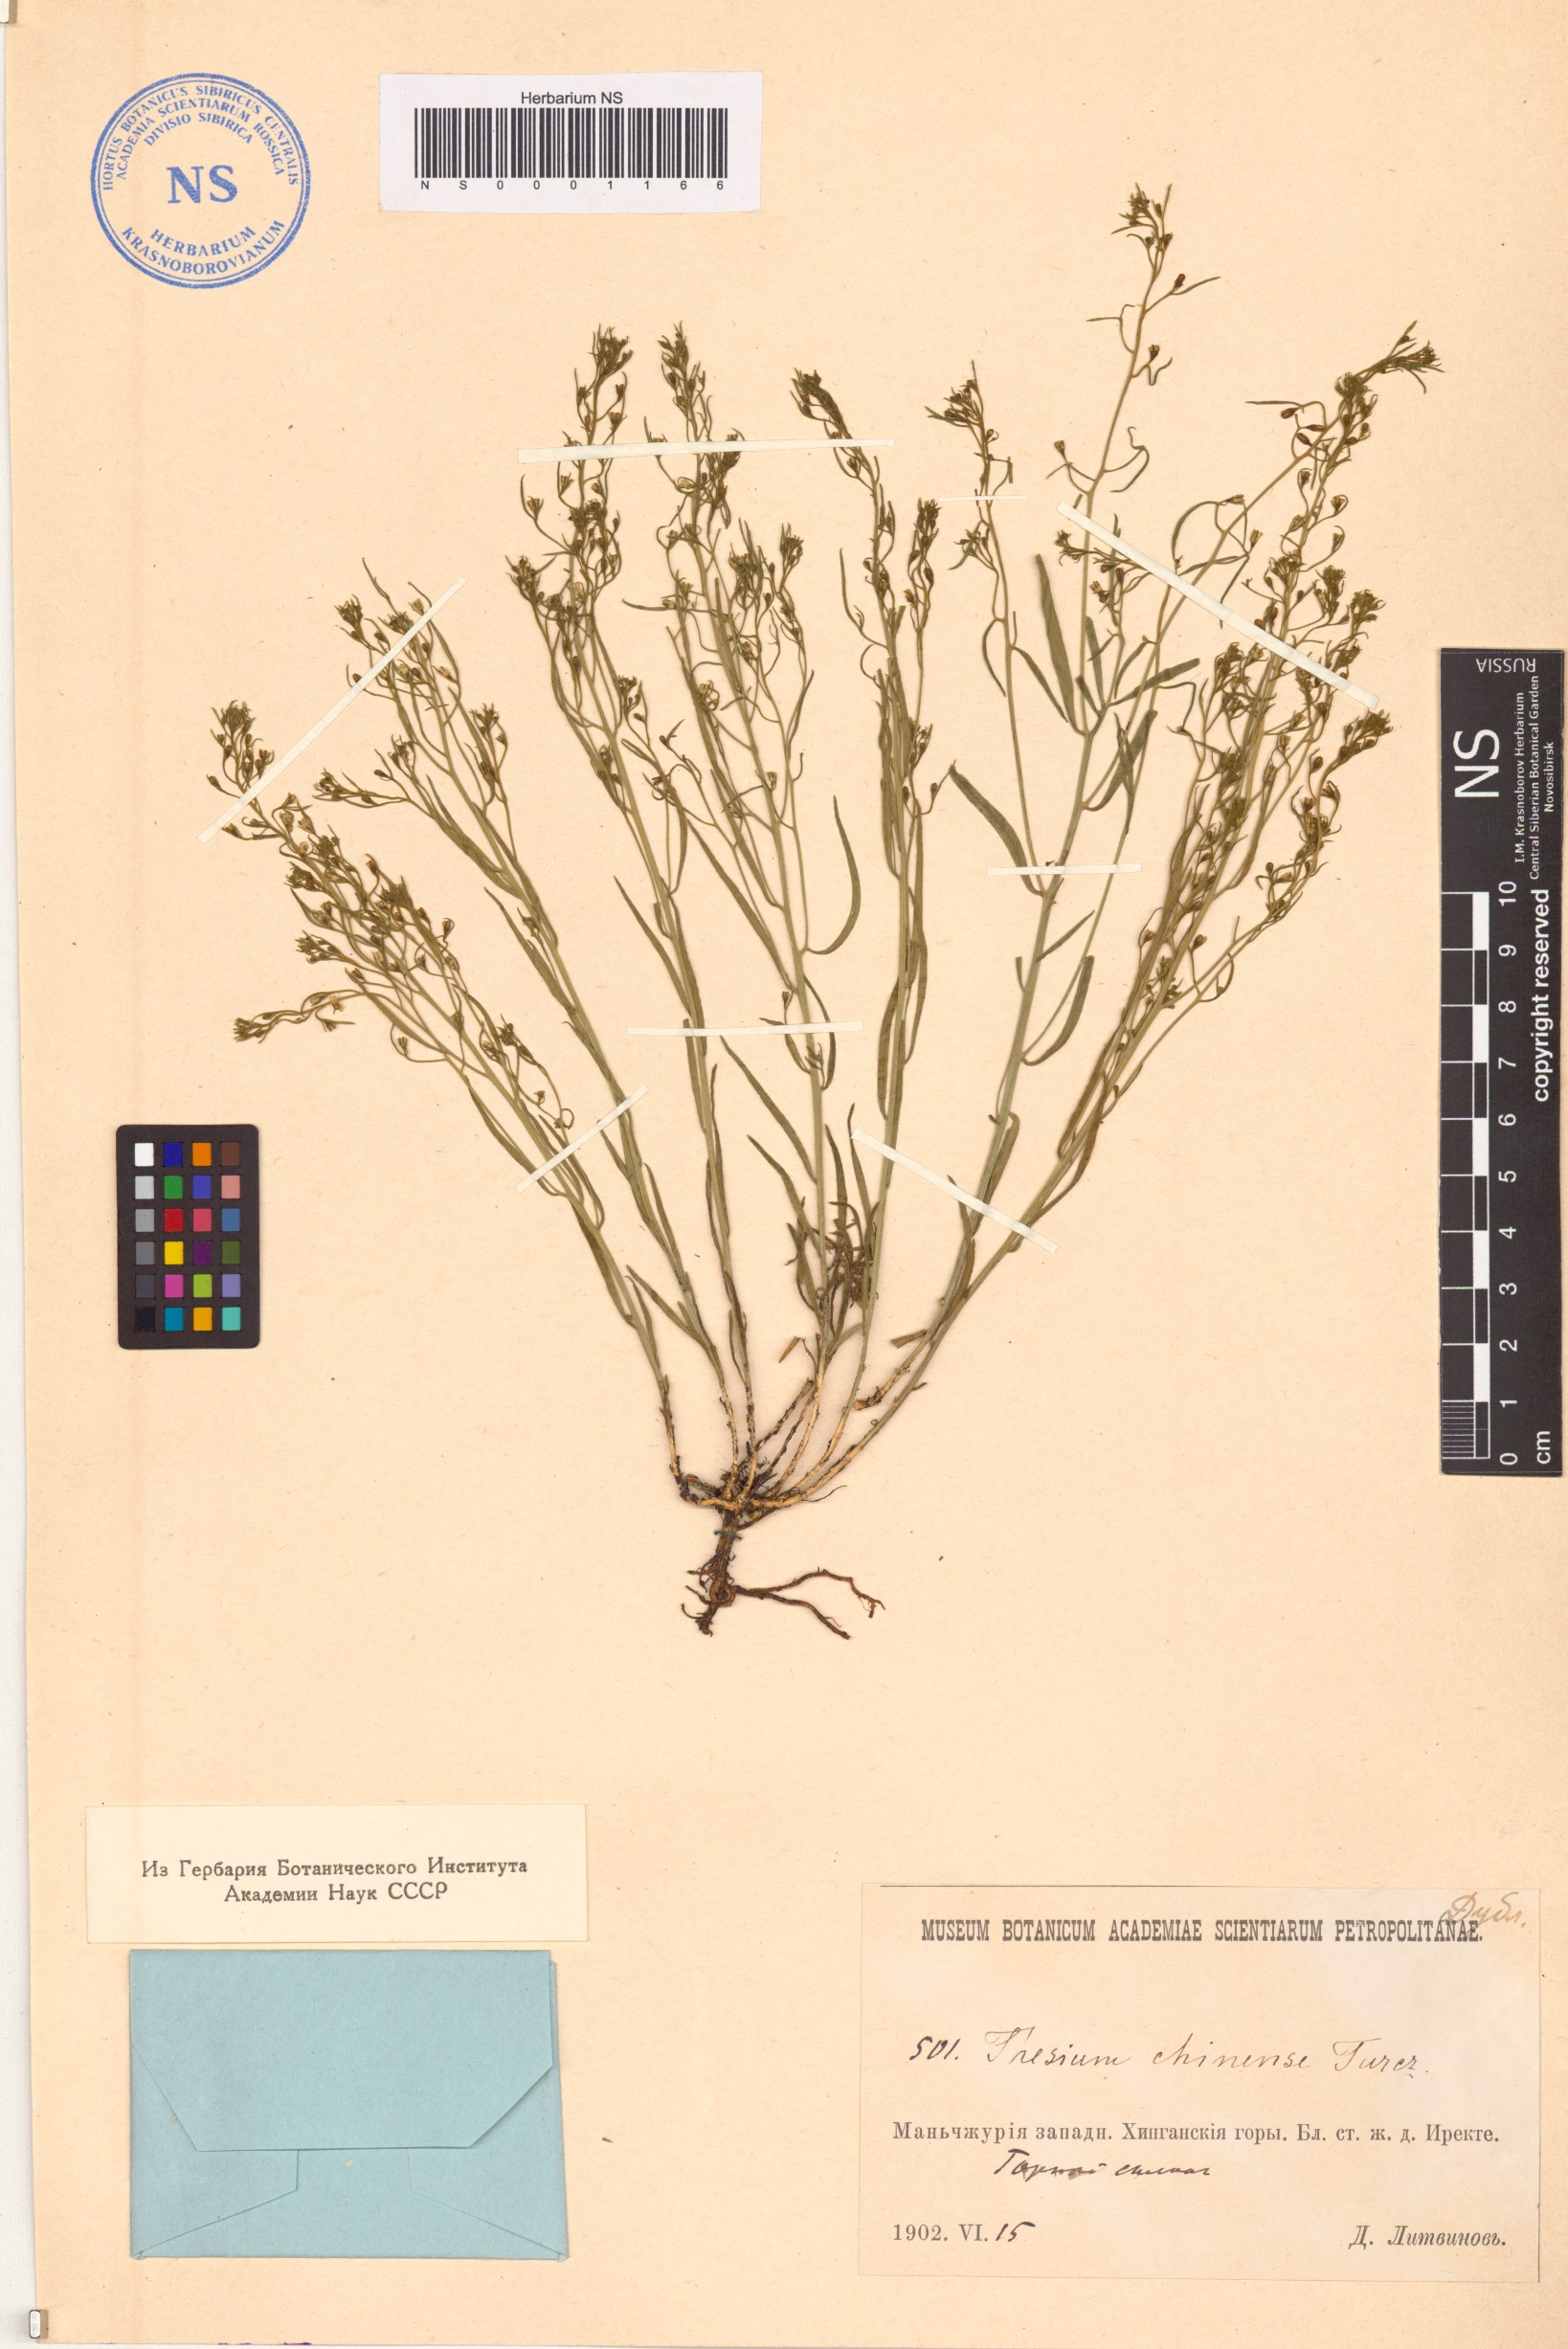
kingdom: Plantae
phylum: Tracheophyta
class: Magnoliopsida
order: Santalales
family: Thesiaceae
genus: Thesium
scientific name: Thesium chinense
